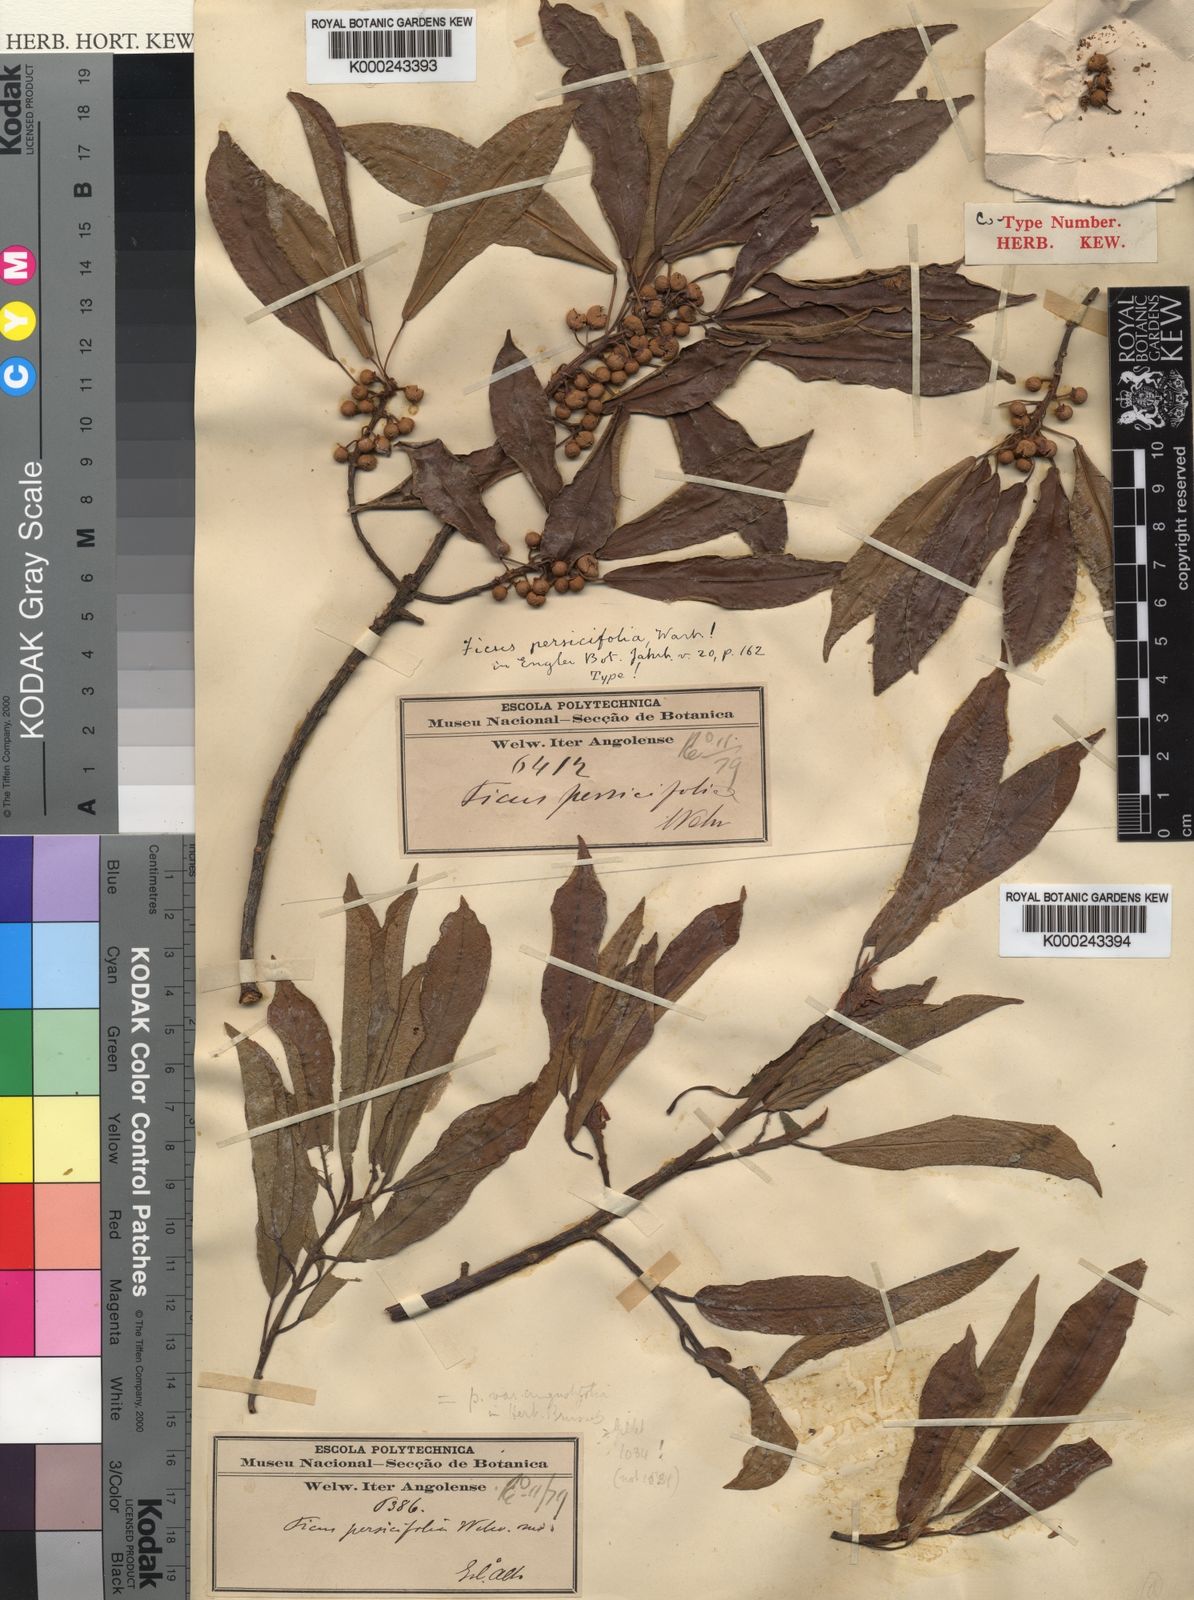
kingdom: Plantae
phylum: Tracheophyta
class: Magnoliopsida
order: Rosales
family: Moraceae
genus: Ficus
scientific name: Ficus thonningii
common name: Fig
